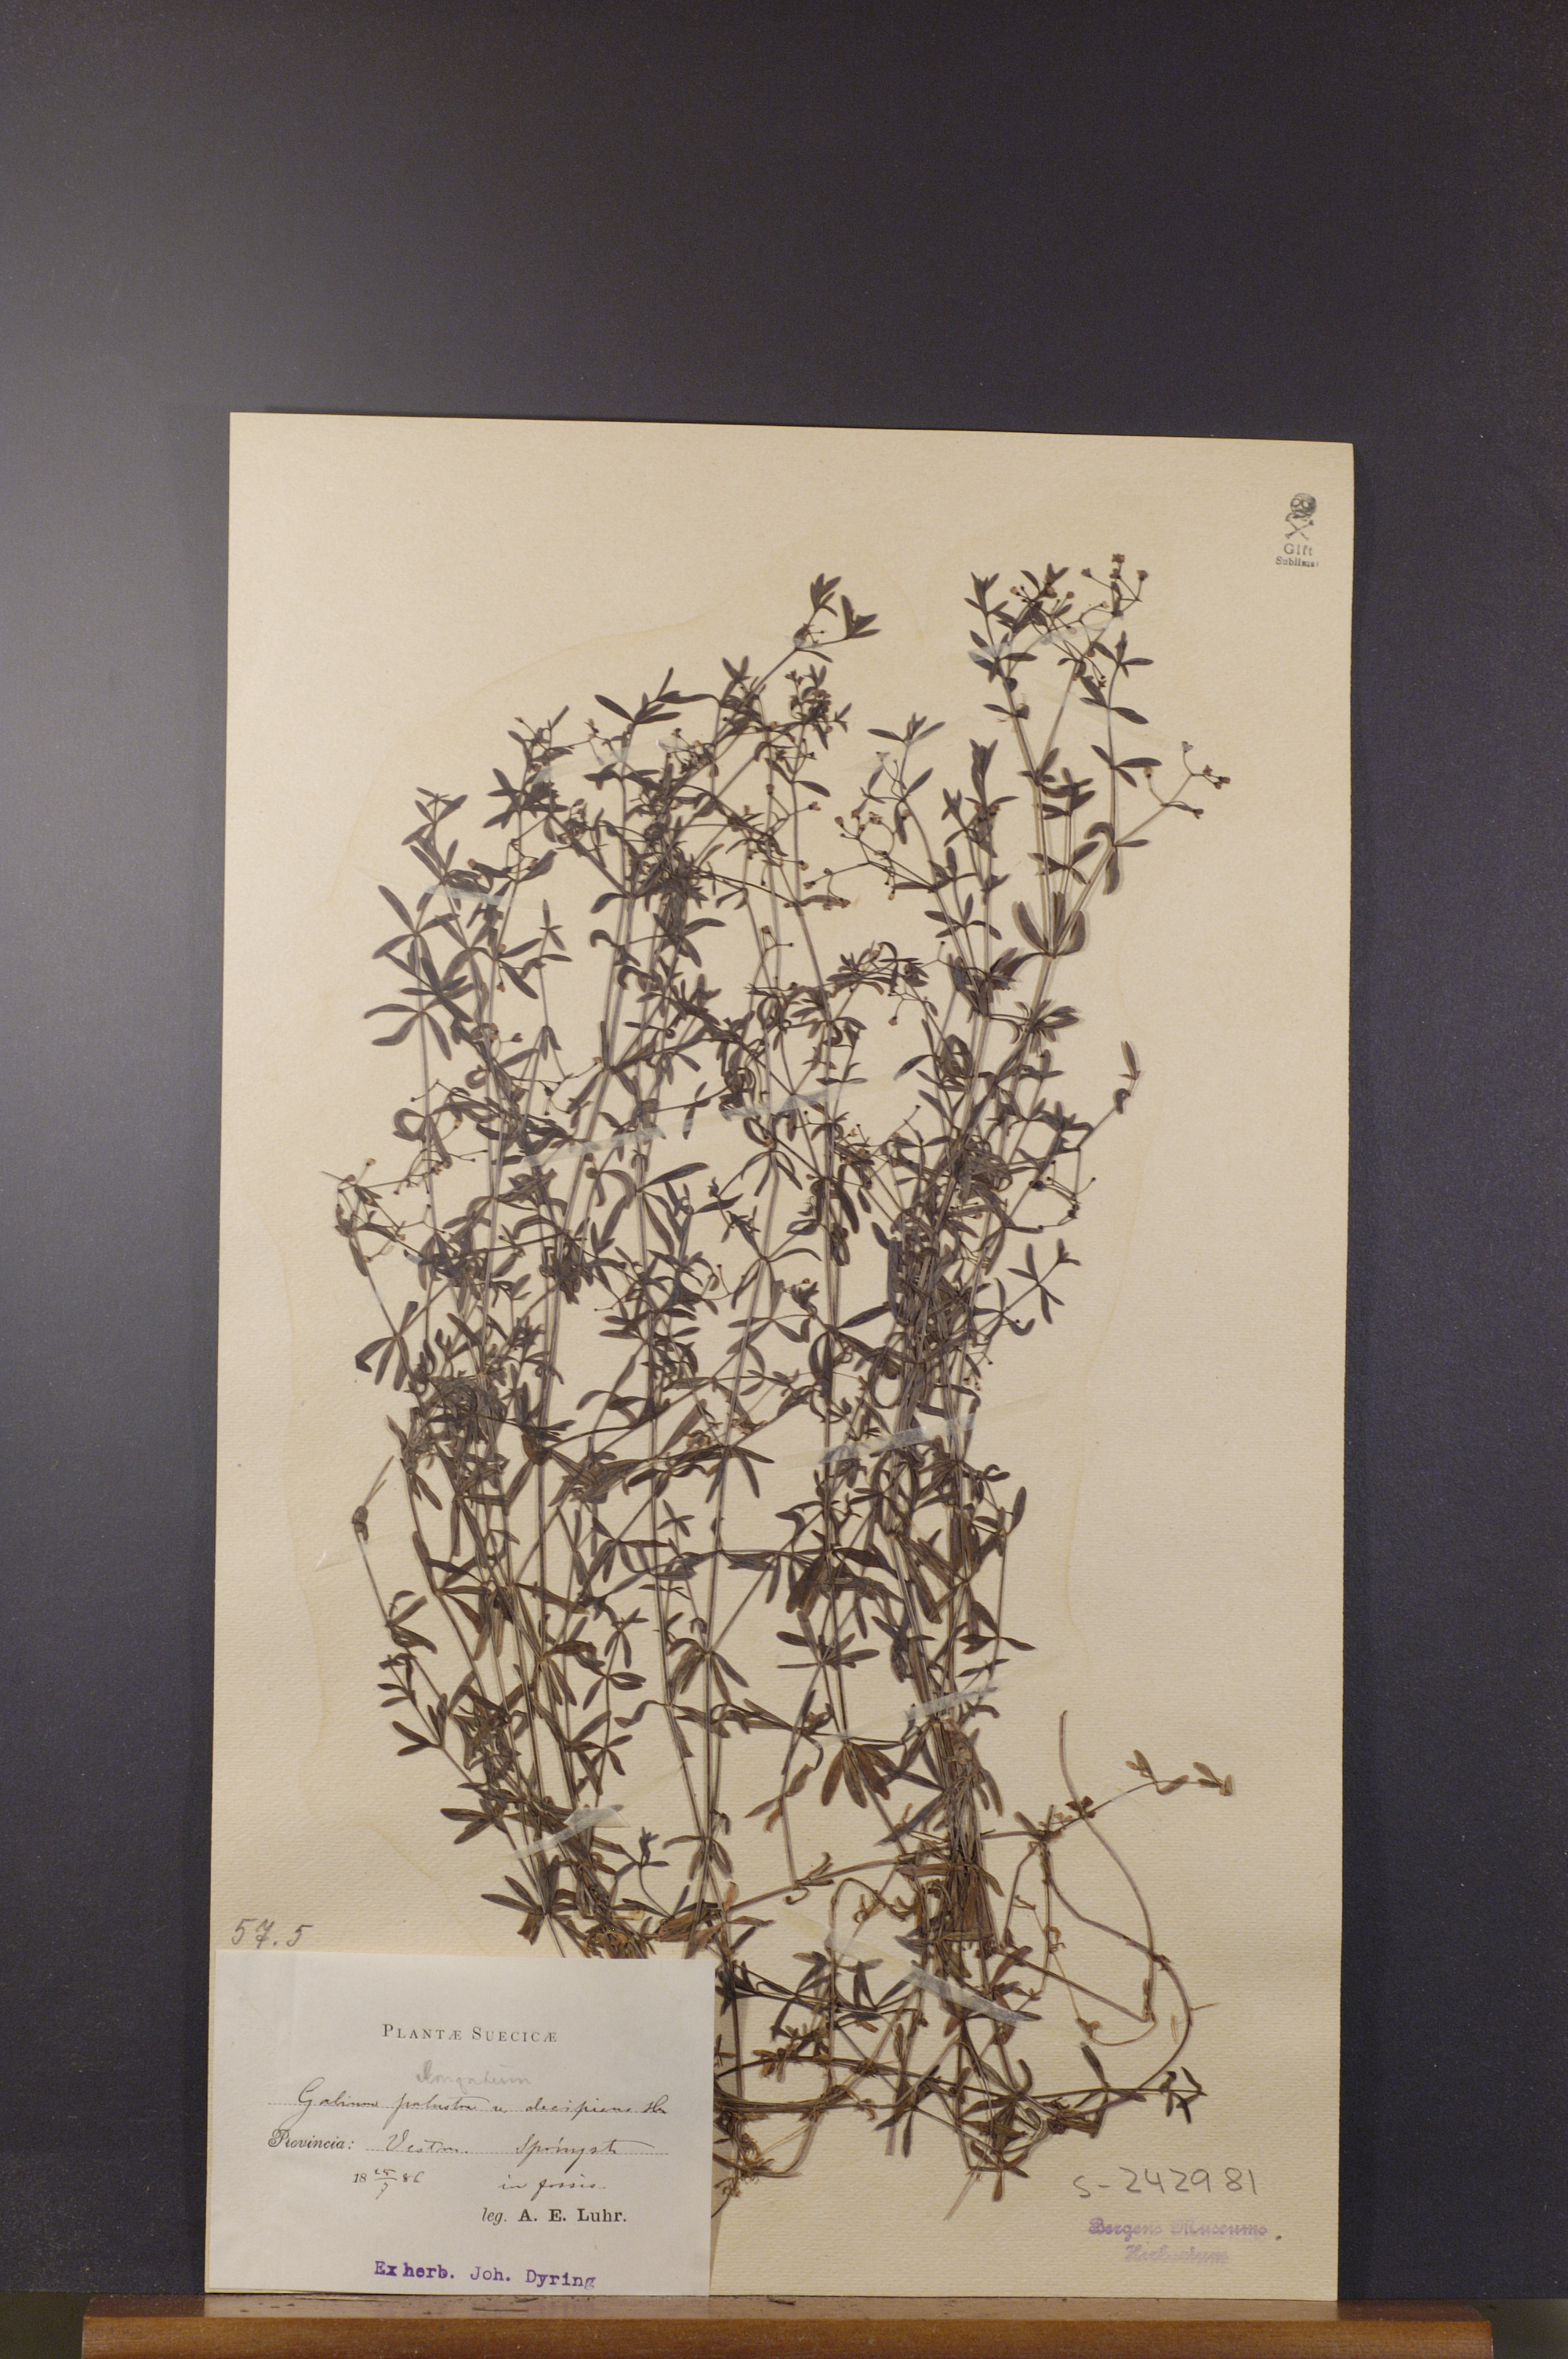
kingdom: Plantae
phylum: Tracheophyta
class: Magnoliopsida
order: Gentianales
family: Rubiaceae
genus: Galium
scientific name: Galium palustre
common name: Common marsh-bedstraw
